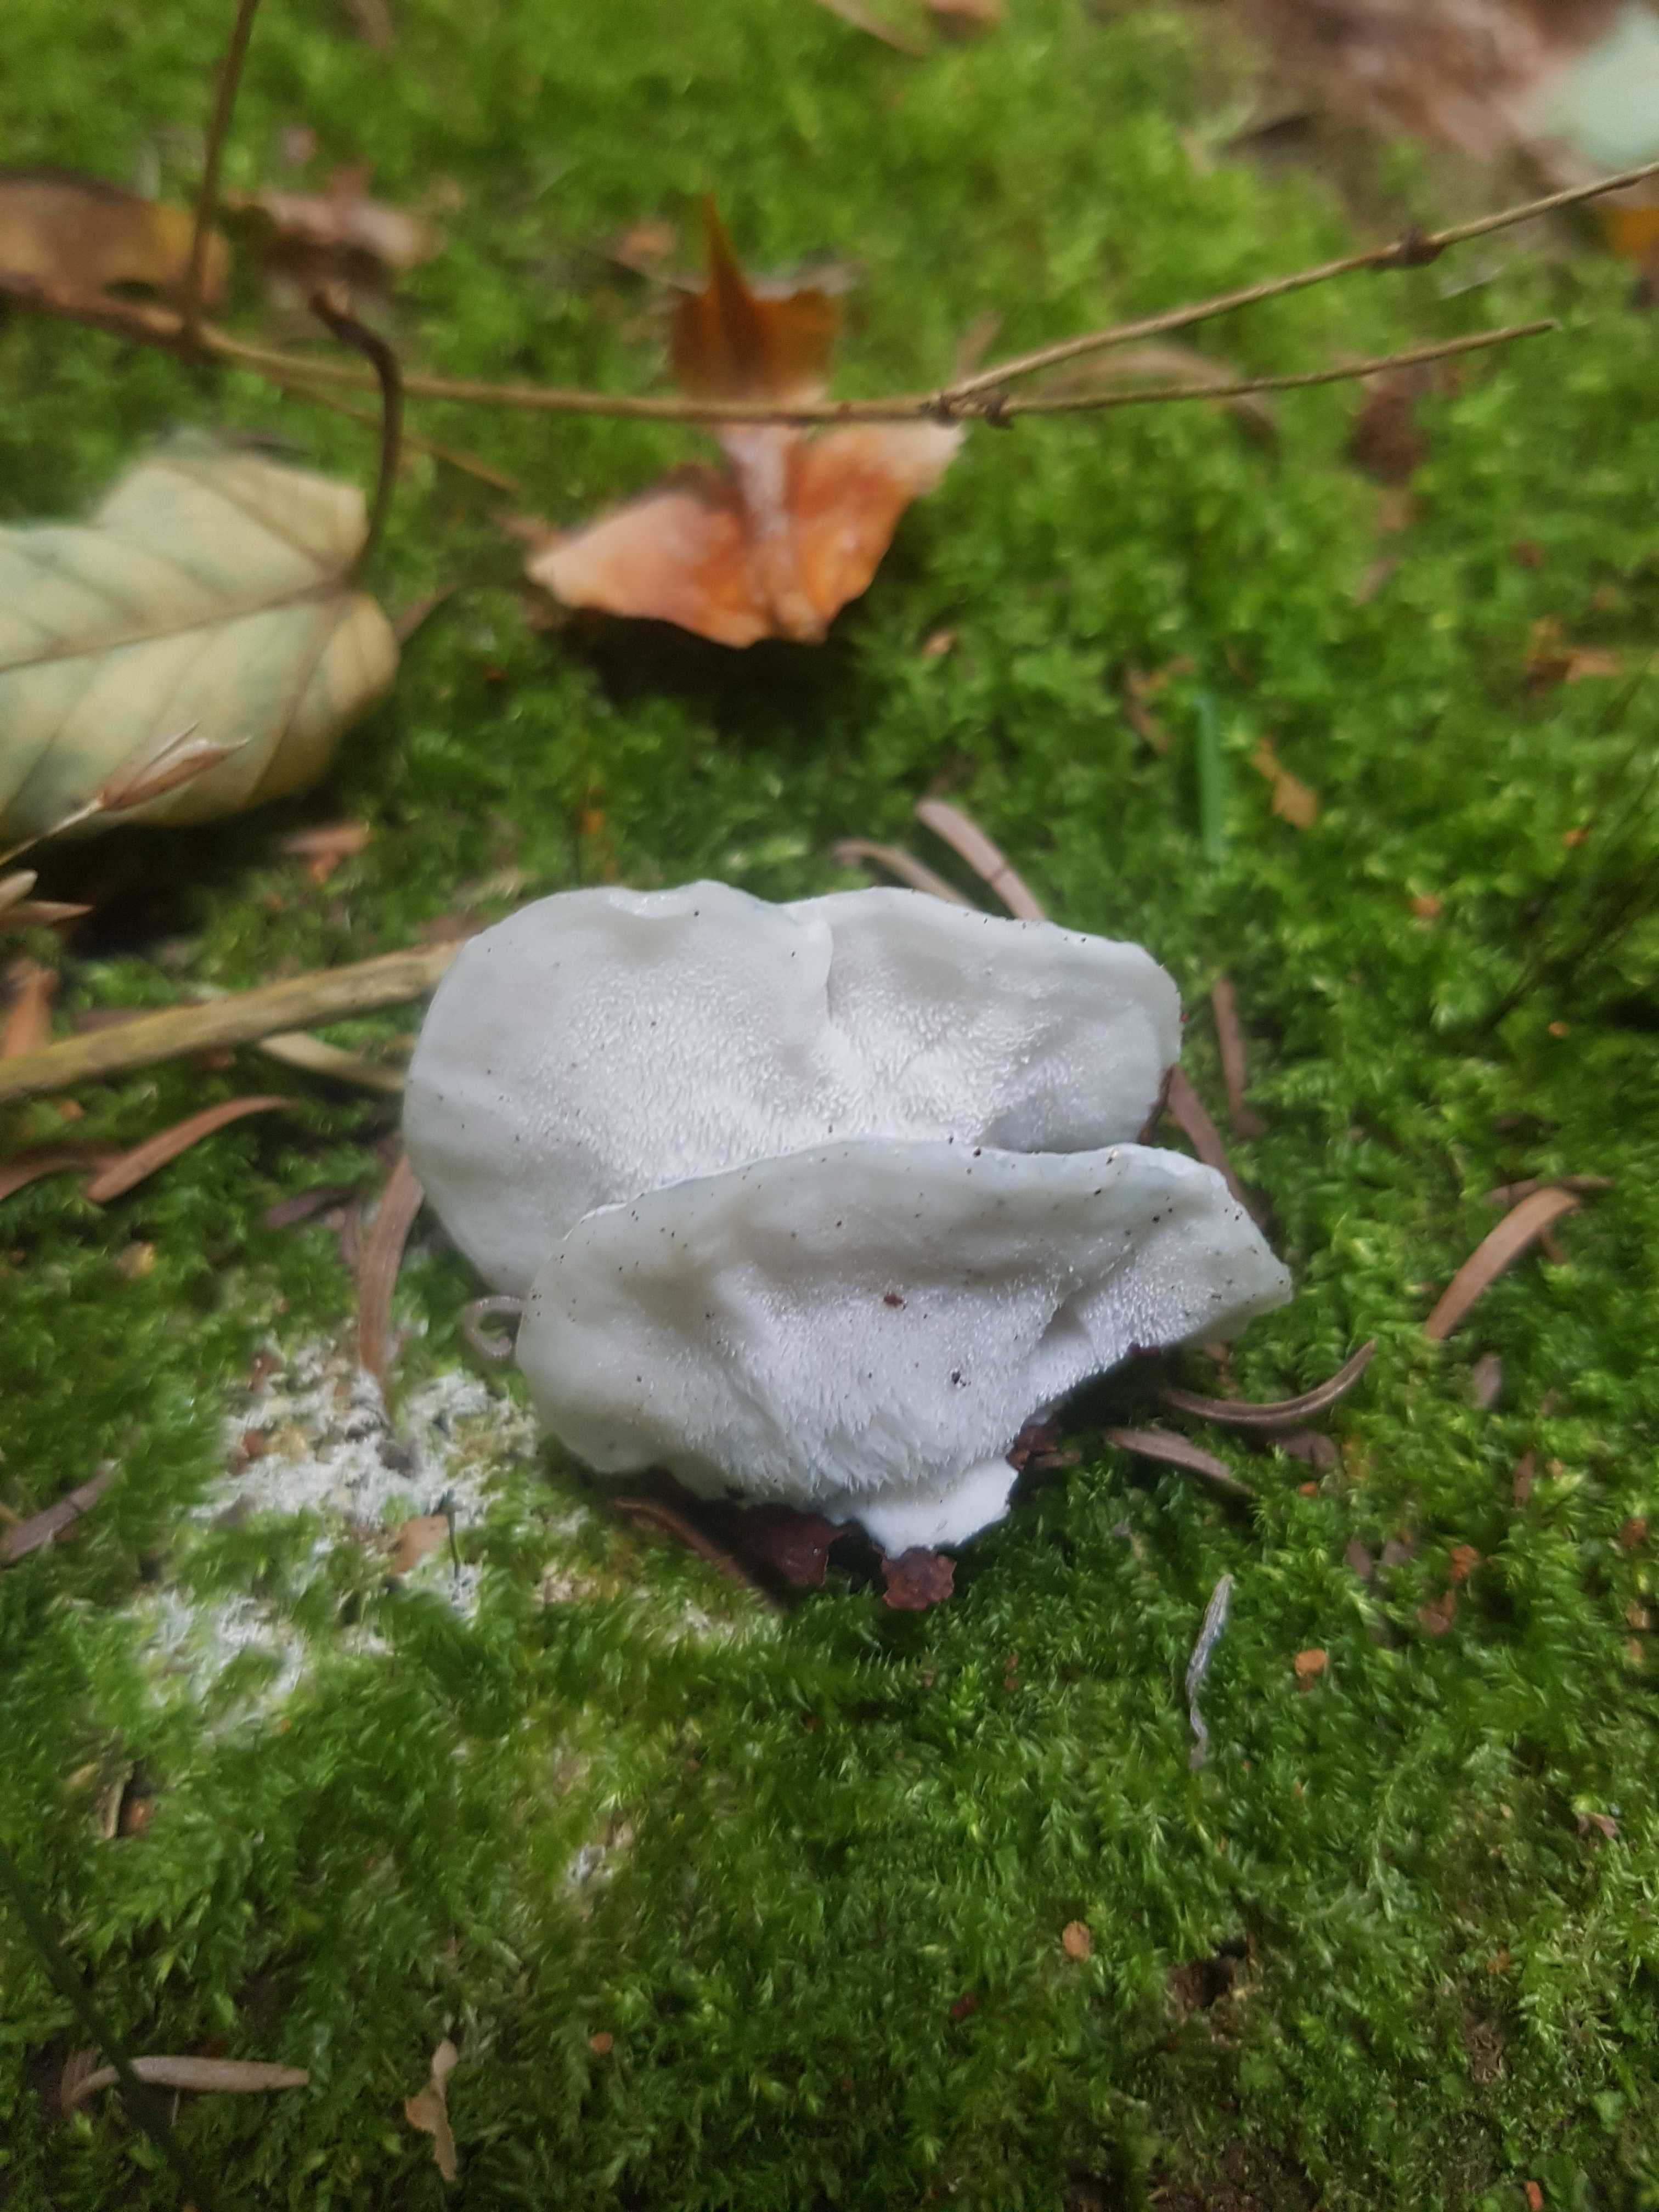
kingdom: Fungi
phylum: Basidiomycota
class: Agaricomycetes
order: Polyporales
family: Polyporaceae
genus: Cyanosporus
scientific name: Cyanosporus caesius
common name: blålig kødporesvamp
